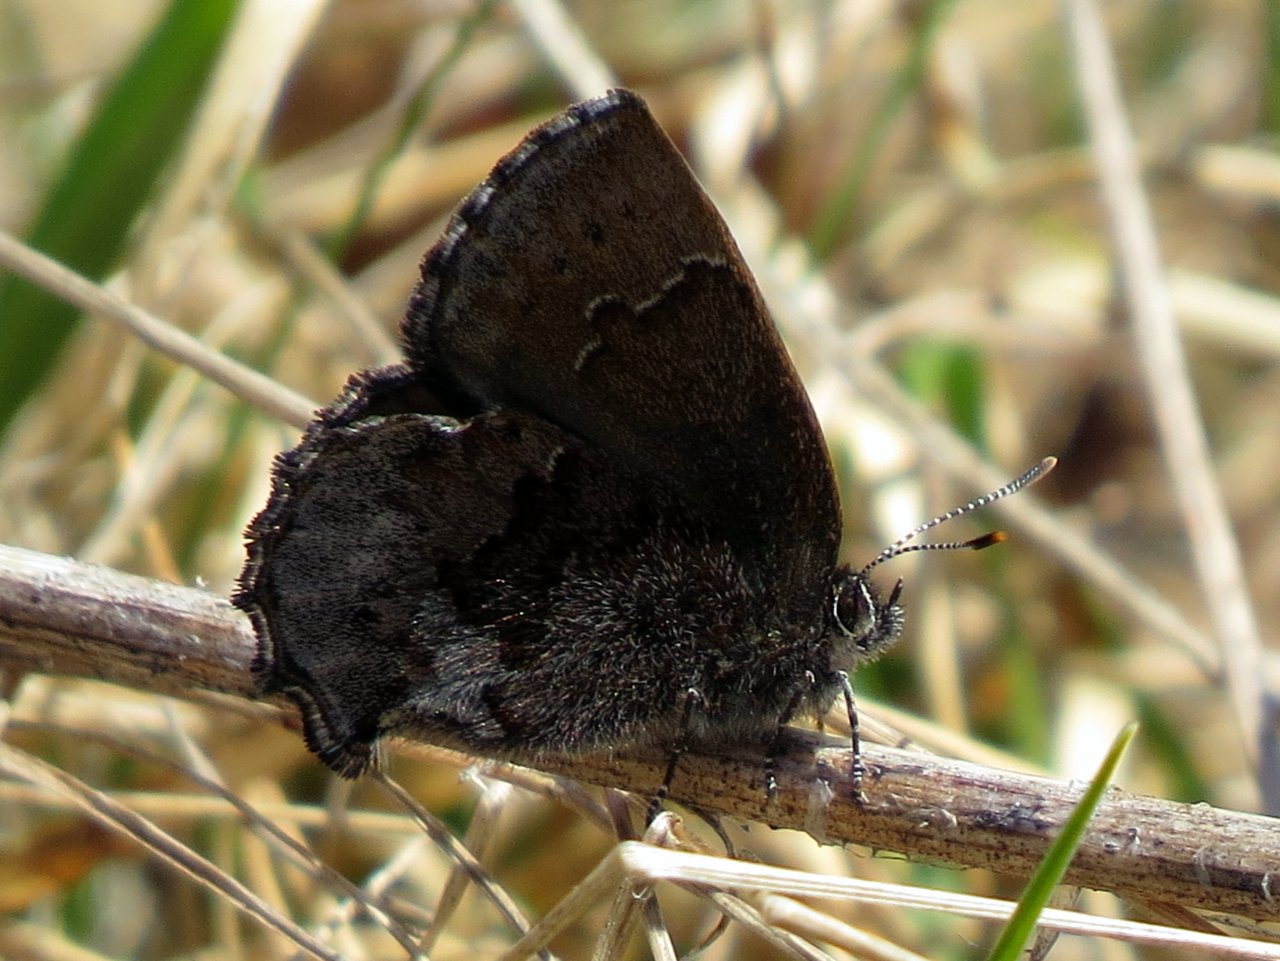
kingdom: Animalia
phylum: Arthropoda
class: Insecta
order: Lepidoptera
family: Lycaenidae
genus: Callophrys
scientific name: Callophrys polios
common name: Hoary Elfin
